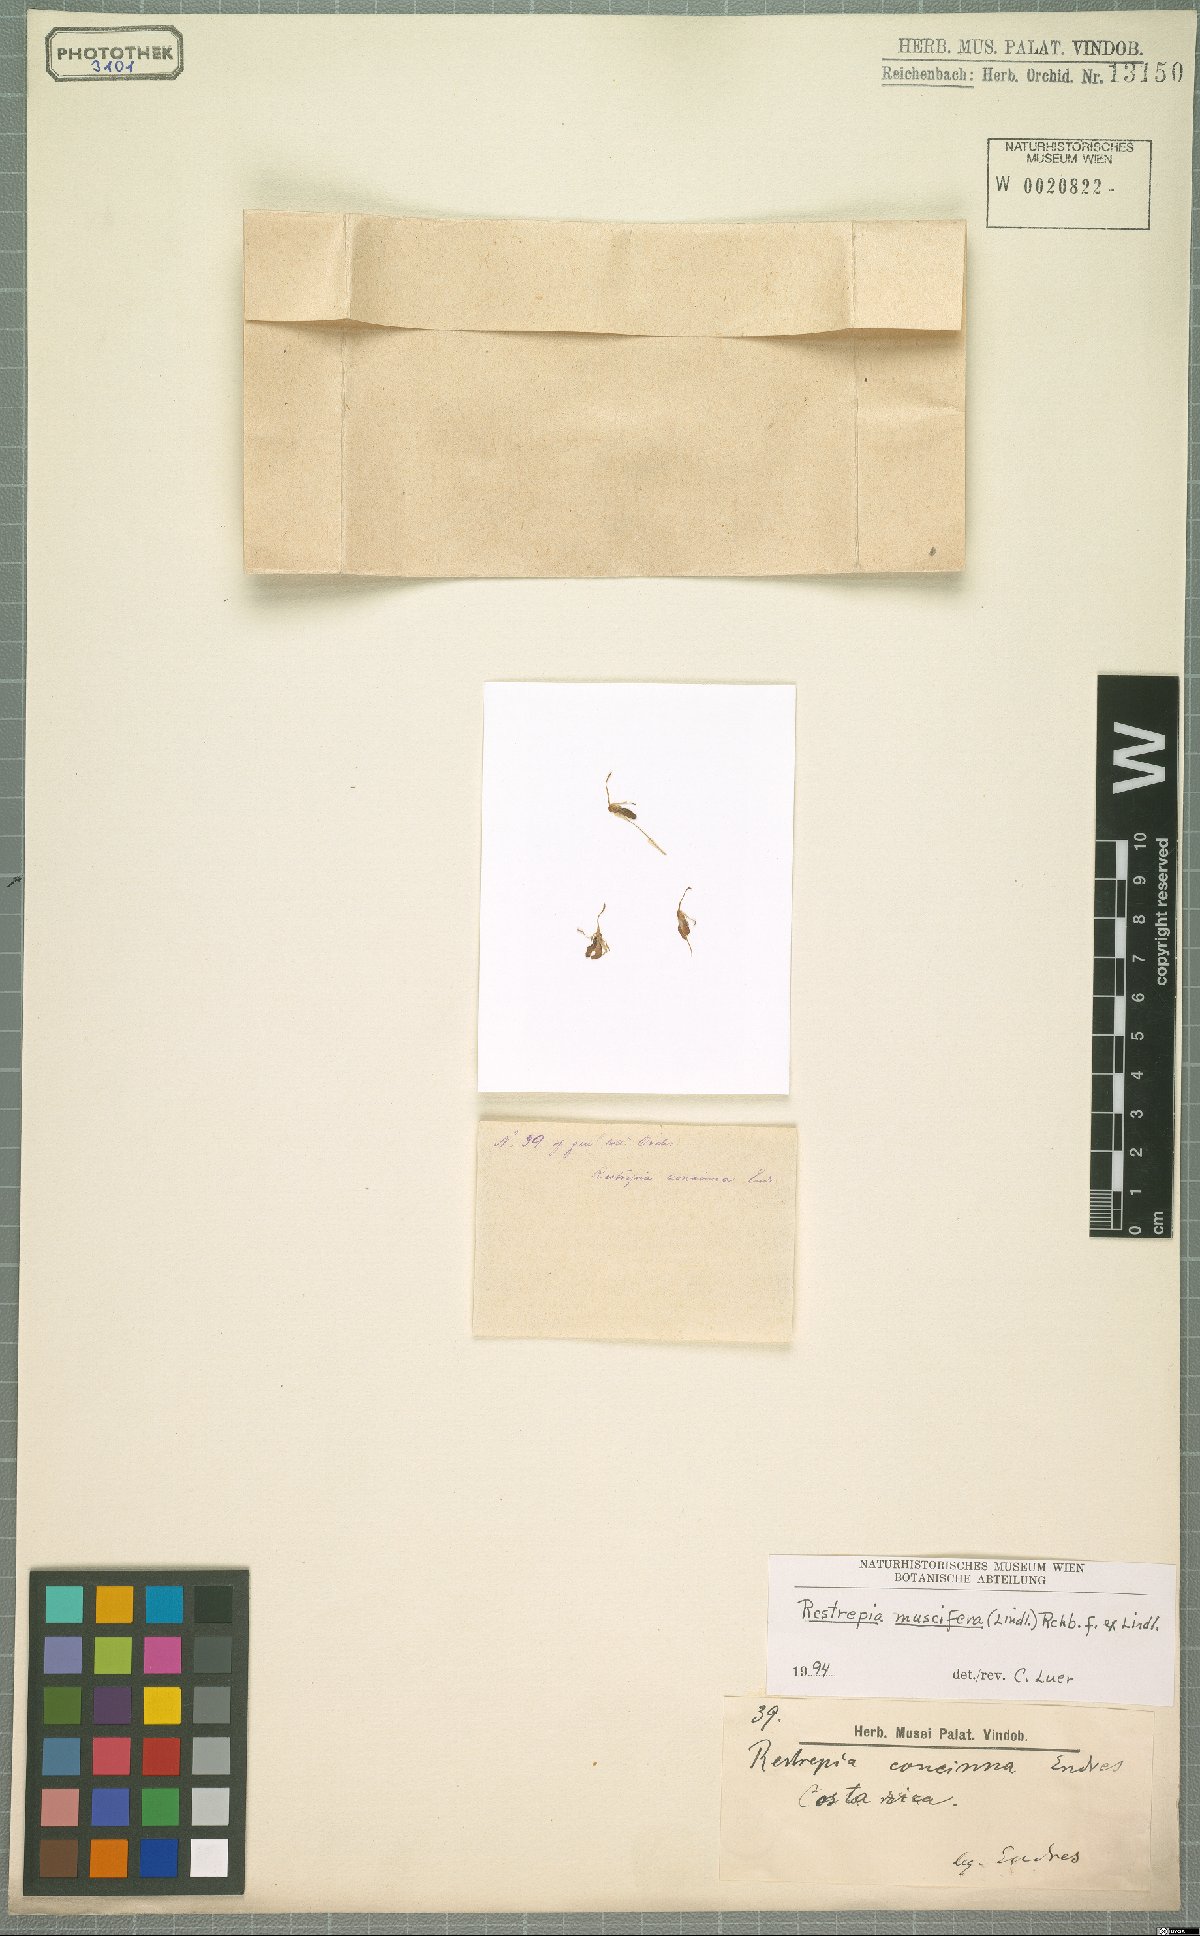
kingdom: Plantae
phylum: Tracheophyta
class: Liliopsida
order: Asparagales
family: Orchidaceae
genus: Restrepia
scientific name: Restrepia muscifera
